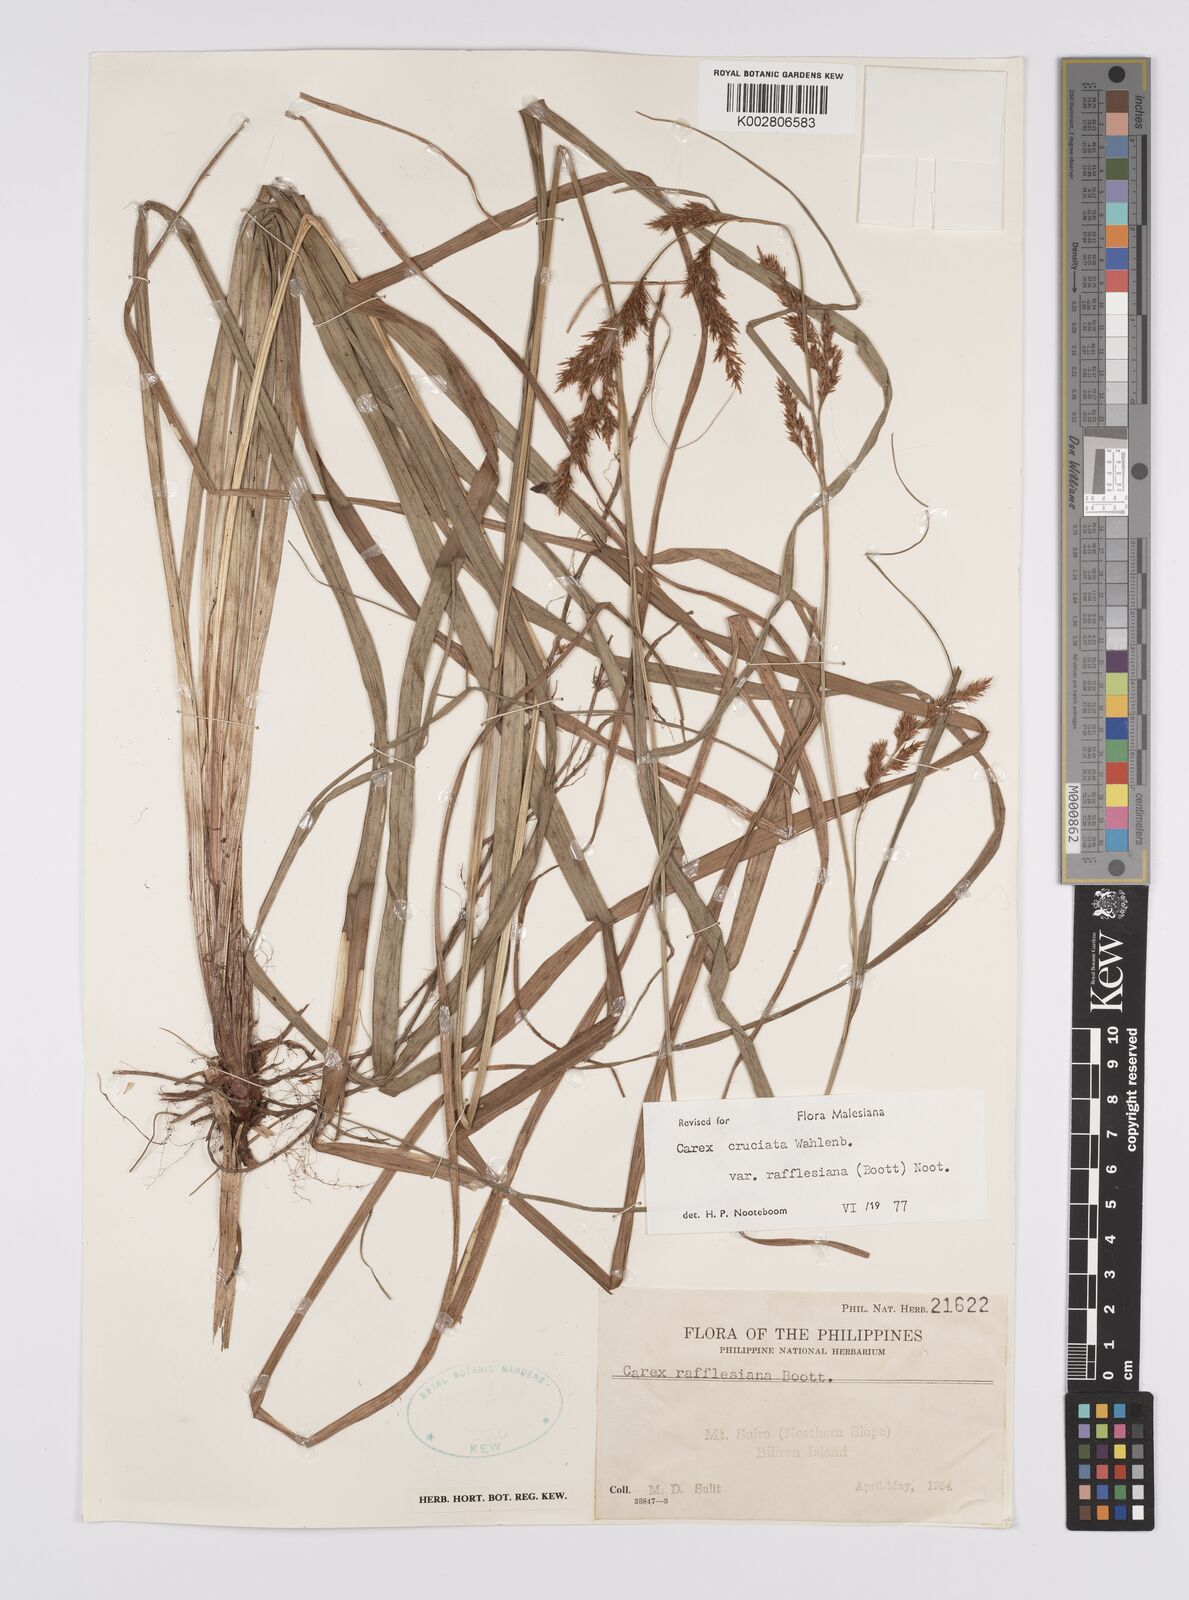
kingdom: Plantae
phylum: Tracheophyta
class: Liliopsida
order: Poales
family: Cyperaceae
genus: Carex
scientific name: Carex rafflesiana
